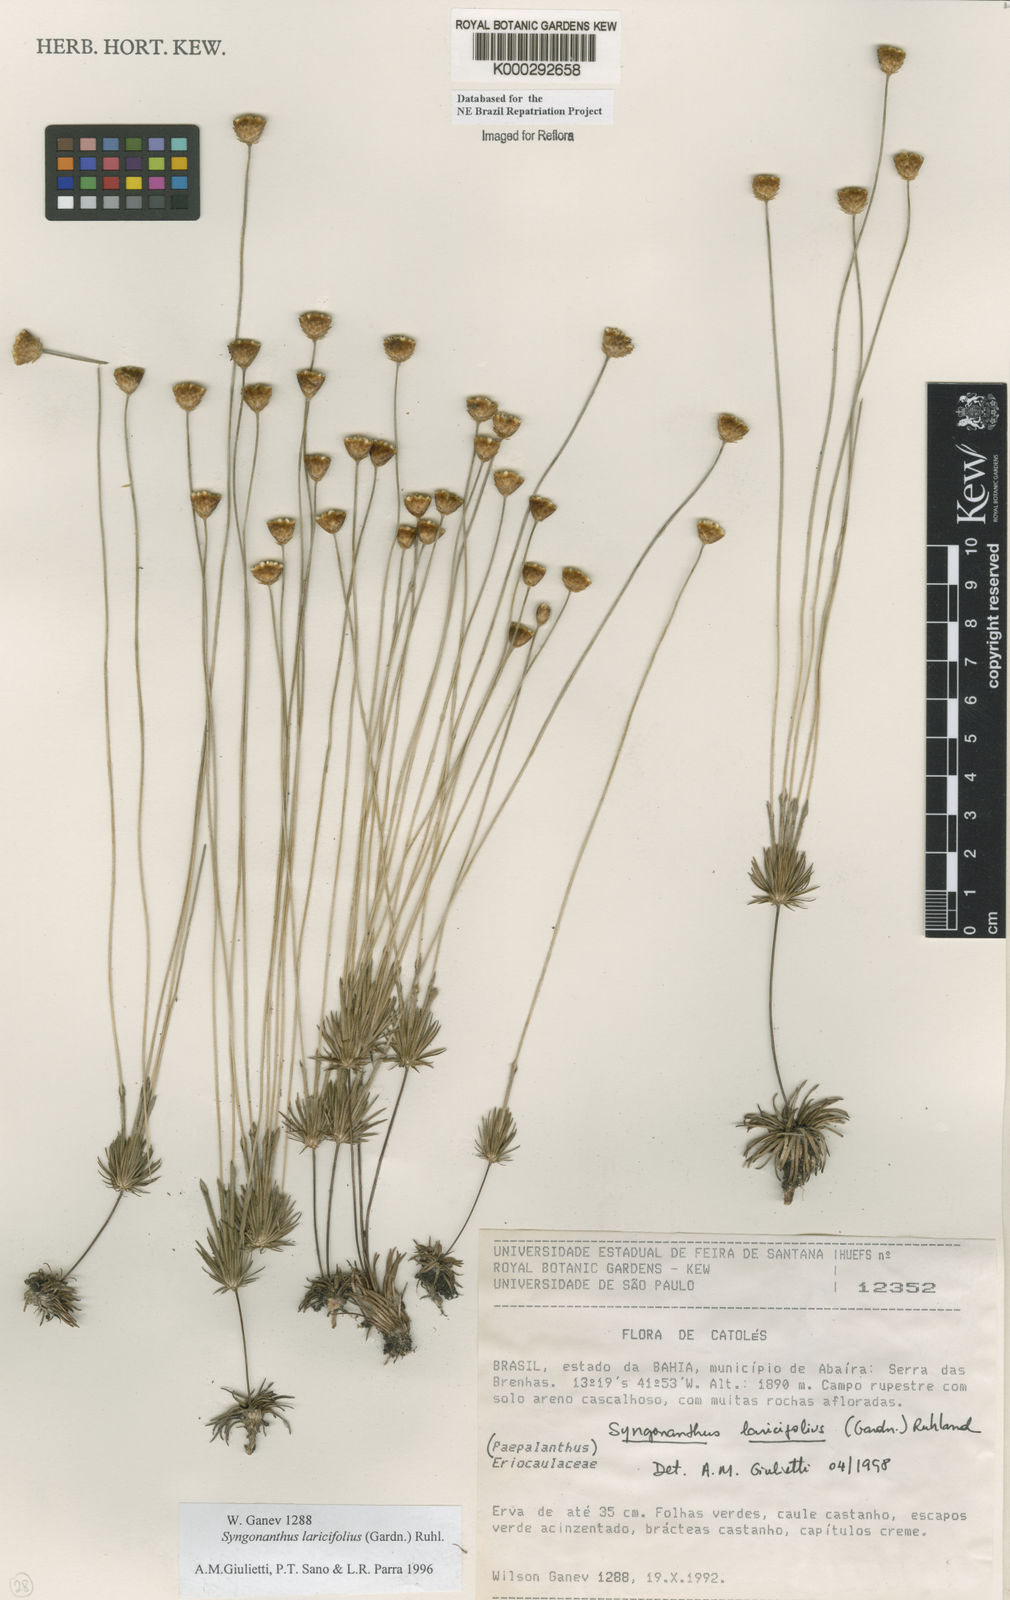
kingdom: Plantae
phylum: Tracheophyta
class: Liliopsida
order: Poales
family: Eriocaulaceae
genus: Syngonanthus
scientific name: Syngonanthus laricifolius
